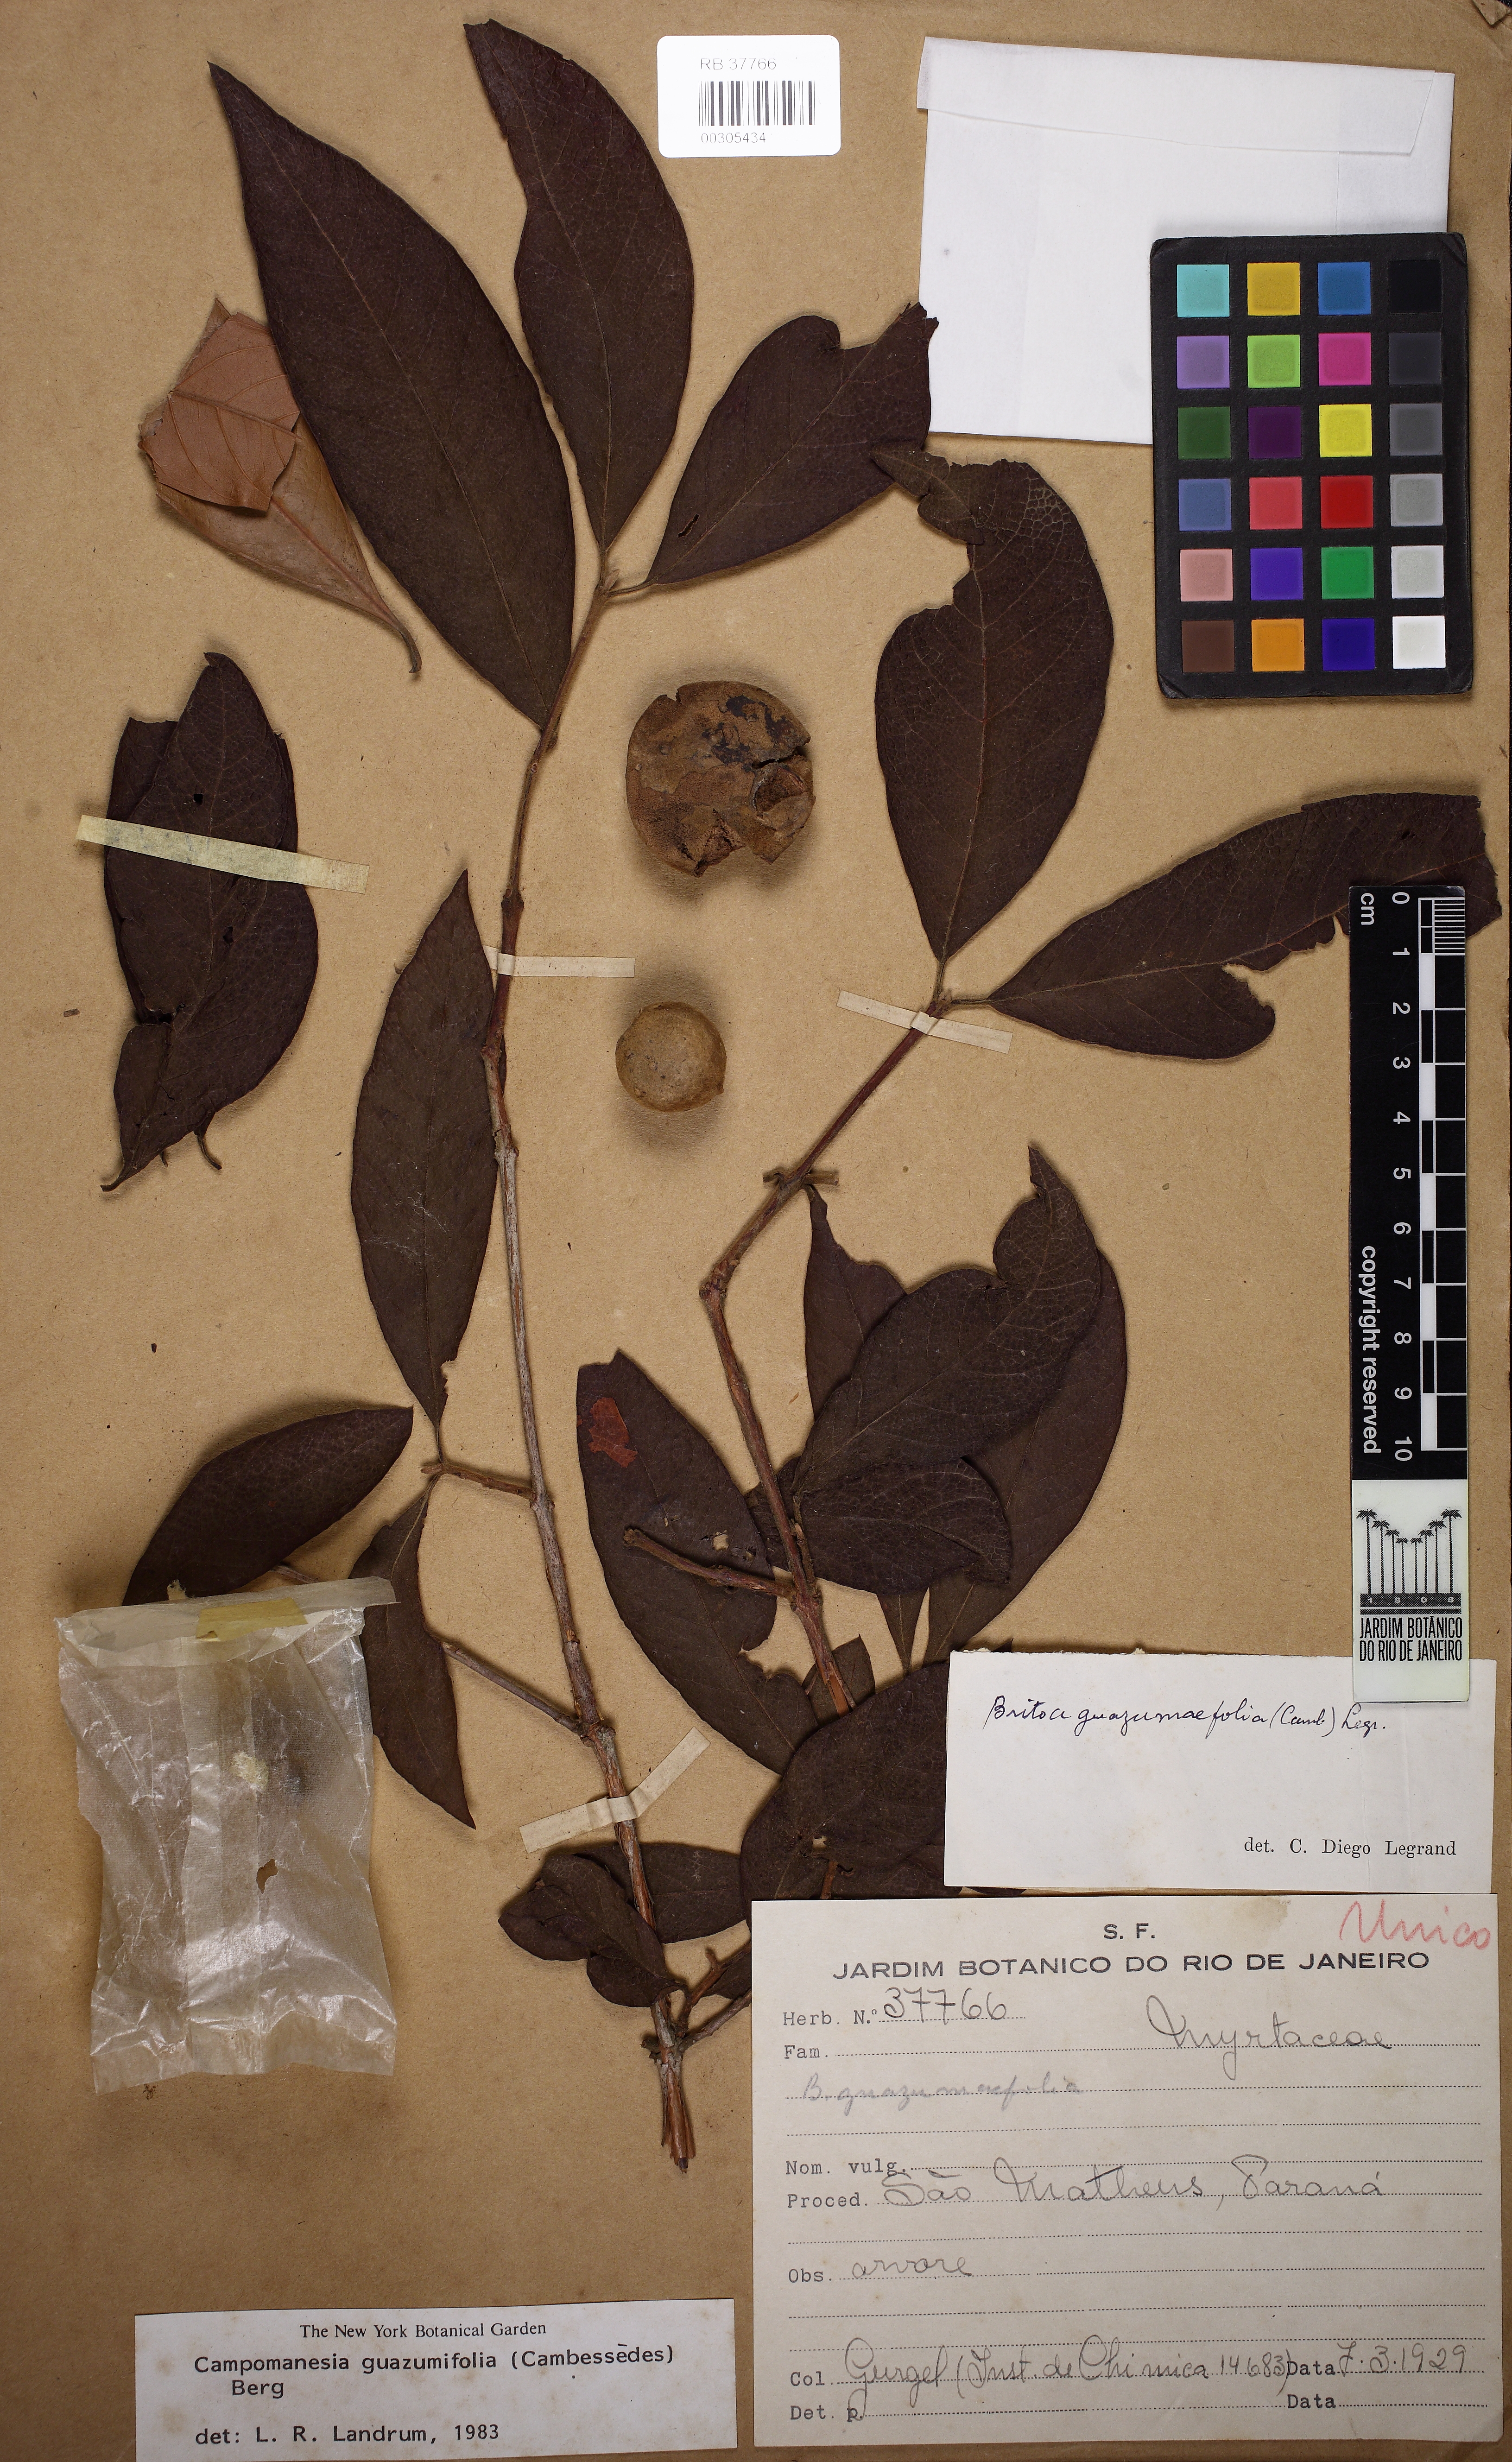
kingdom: Plantae
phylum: Tracheophyta
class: Magnoliopsida
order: Myrtales
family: Myrtaceae
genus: Campomanesia
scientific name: Campomanesia guazumifolia
